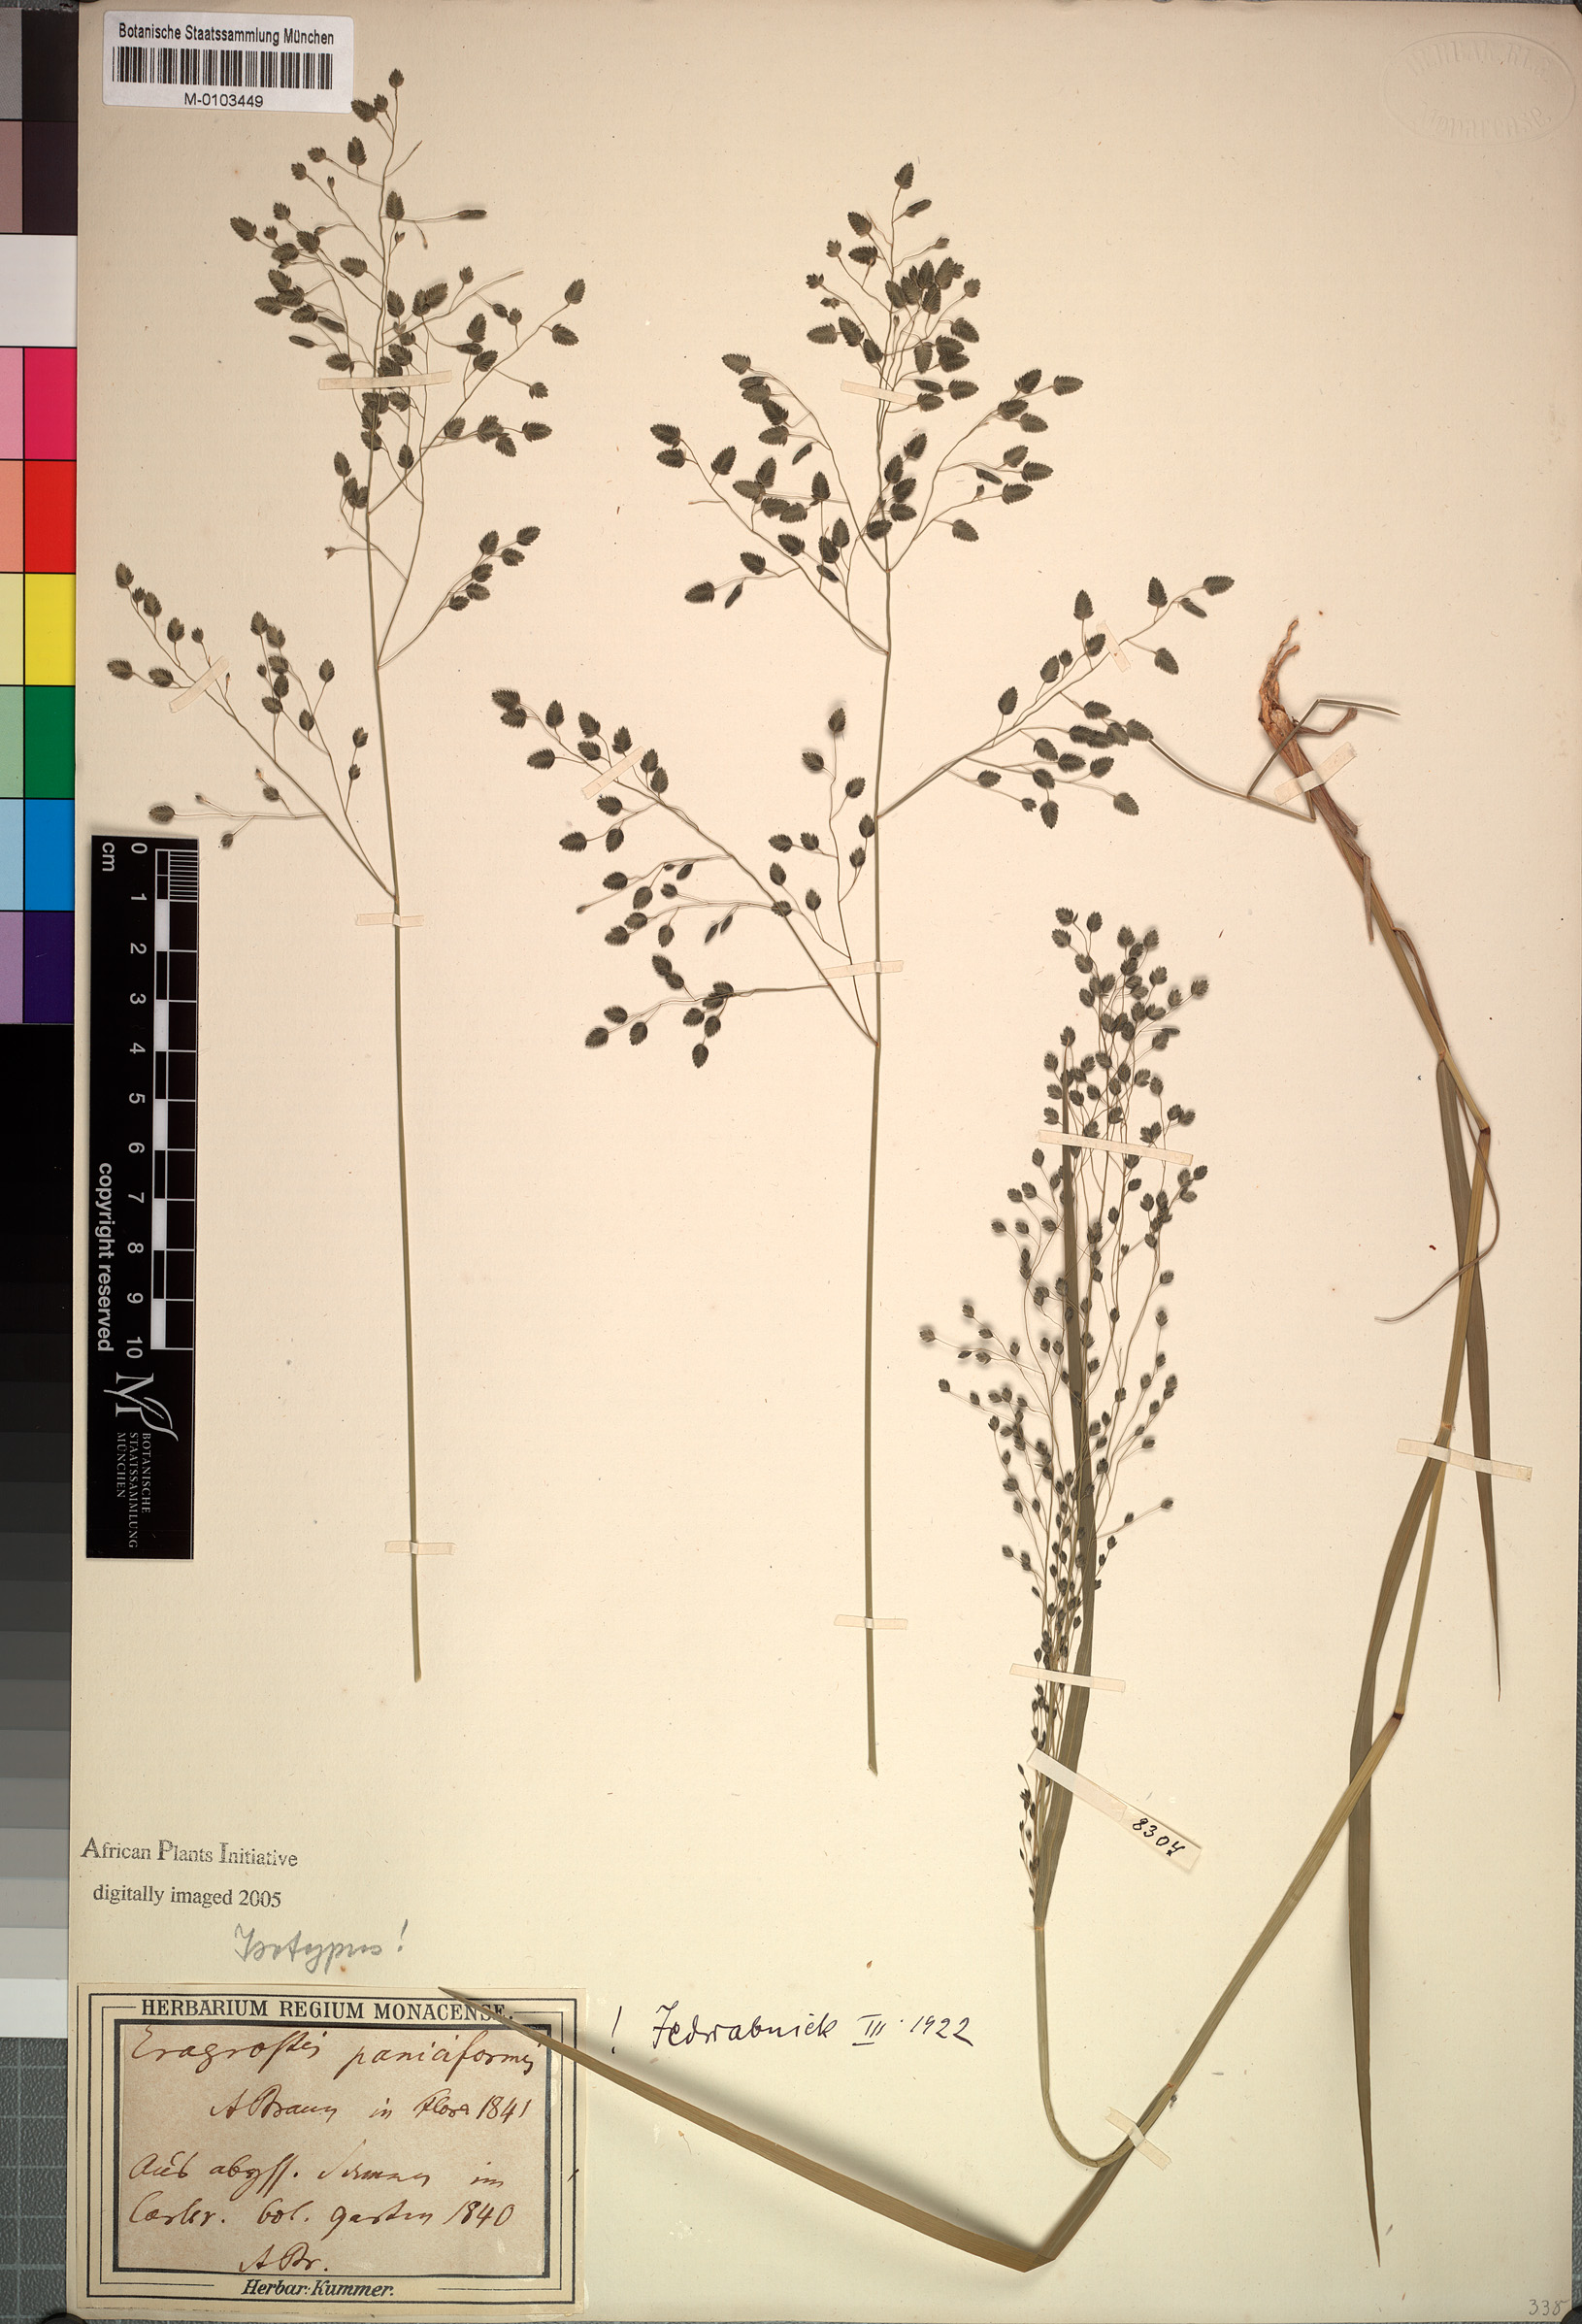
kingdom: Plantae
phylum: Tracheophyta
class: Liliopsida
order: Poales
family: Poaceae
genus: Eragrostis
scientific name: Eragrostis
